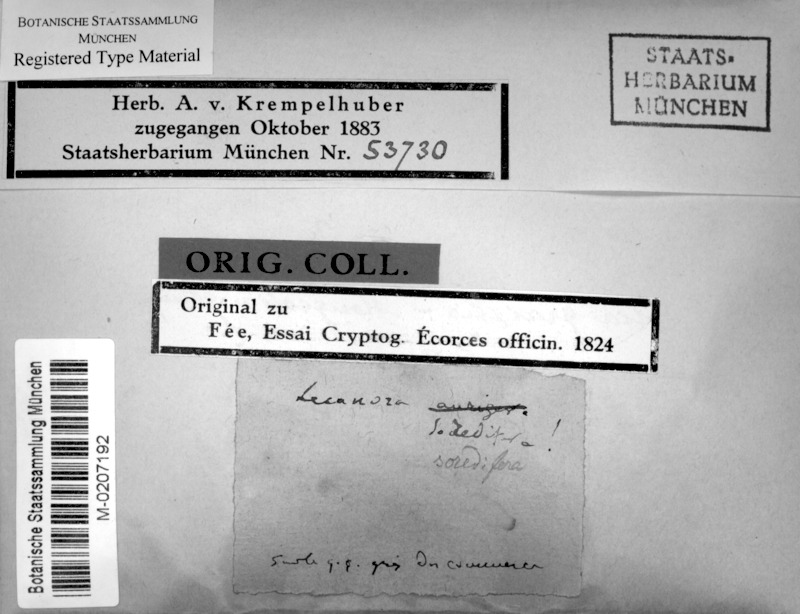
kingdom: Fungi
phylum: Ascomycota
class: Lecanoromycetes
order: Lecanorales
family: Lecanoraceae
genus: Lecanora
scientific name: Lecanora soredifera
